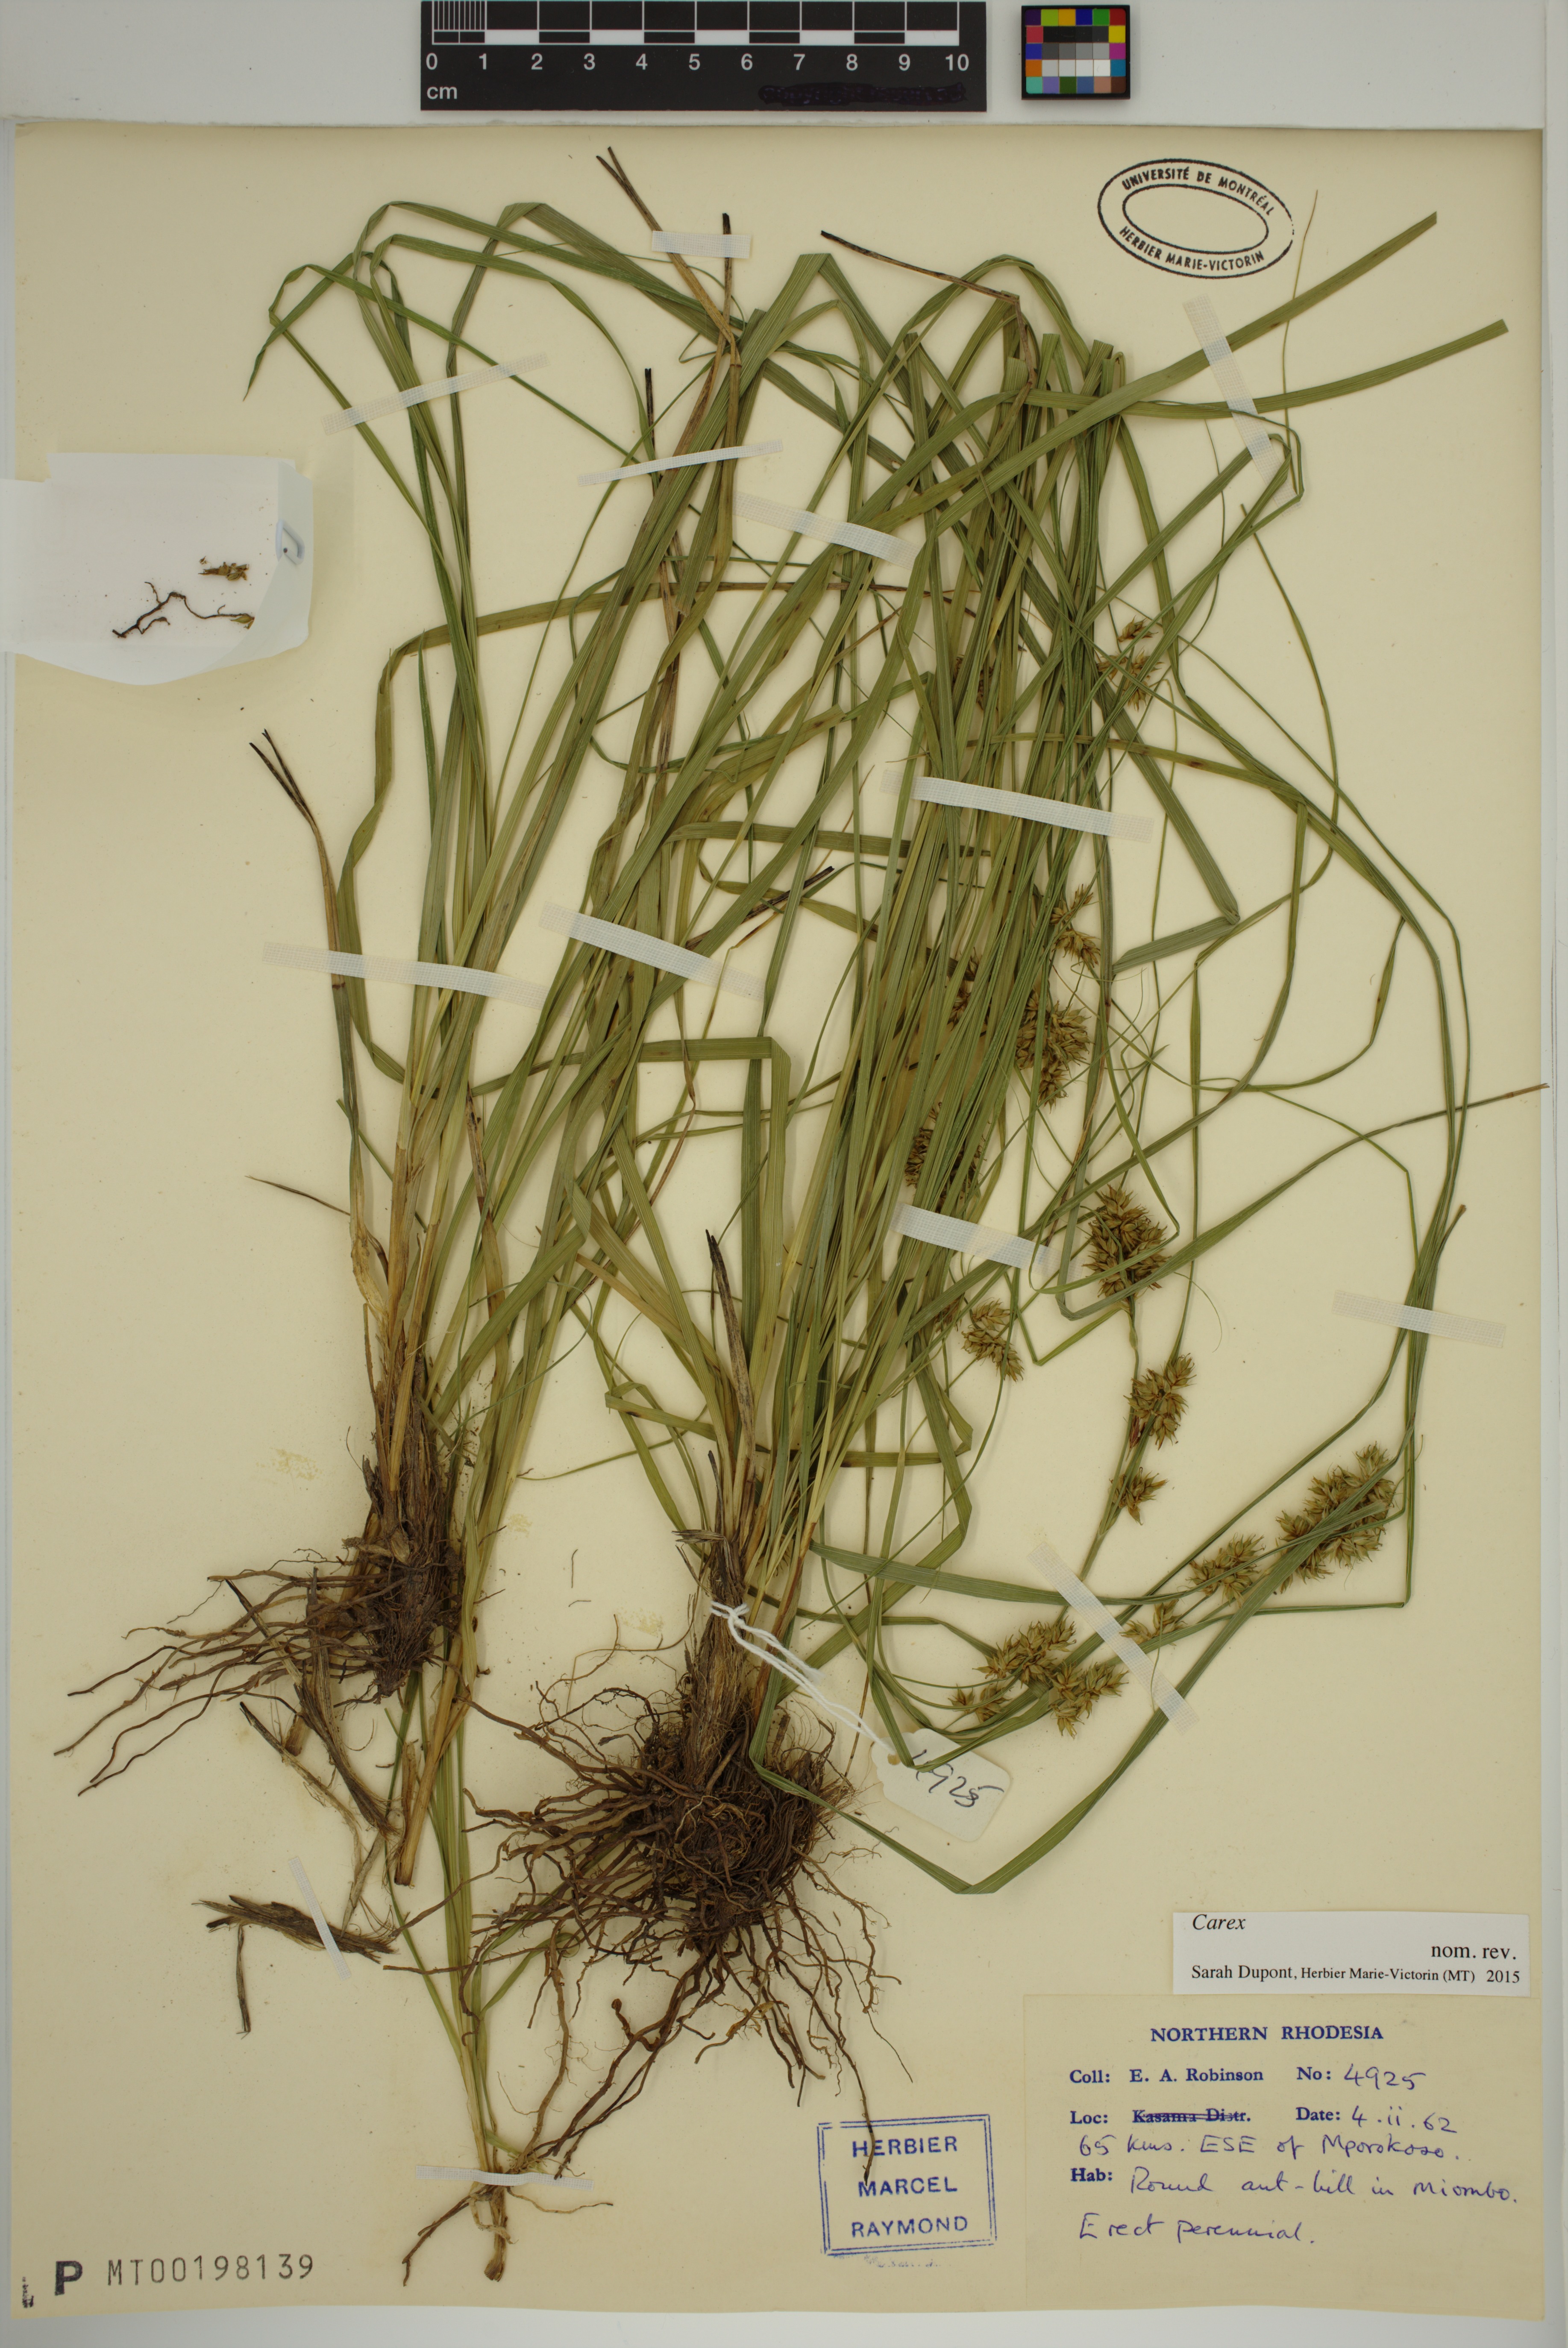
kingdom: Plantae
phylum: Tracheophyta
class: Liliopsida
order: Poales
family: Cyperaceae
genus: Carex
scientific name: Carex
